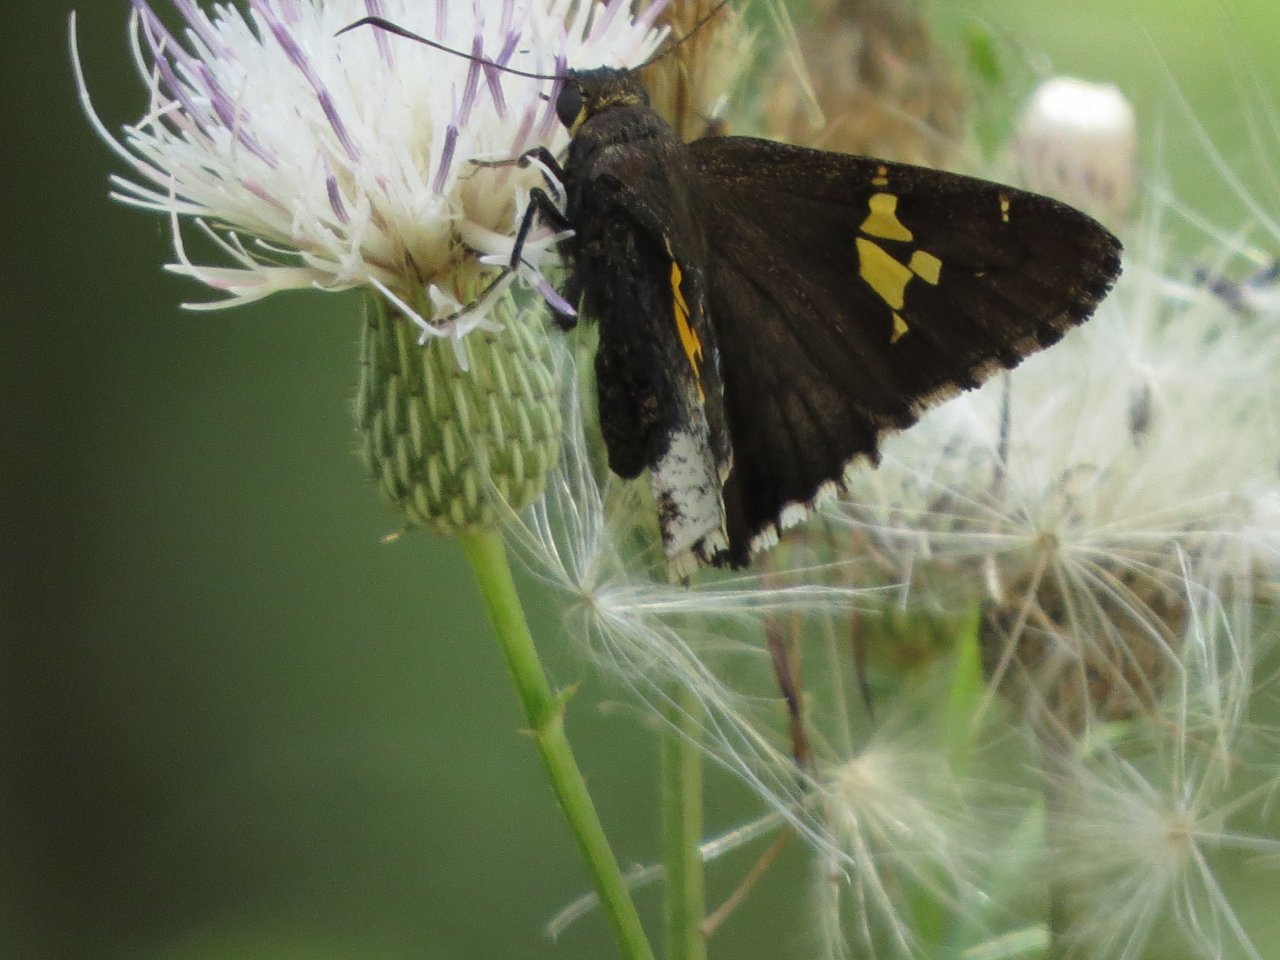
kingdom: Animalia
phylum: Arthropoda
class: Insecta
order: Lepidoptera
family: Hesperiidae
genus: Achalarus
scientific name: Achalarus lyciades
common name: Hoary Edge
